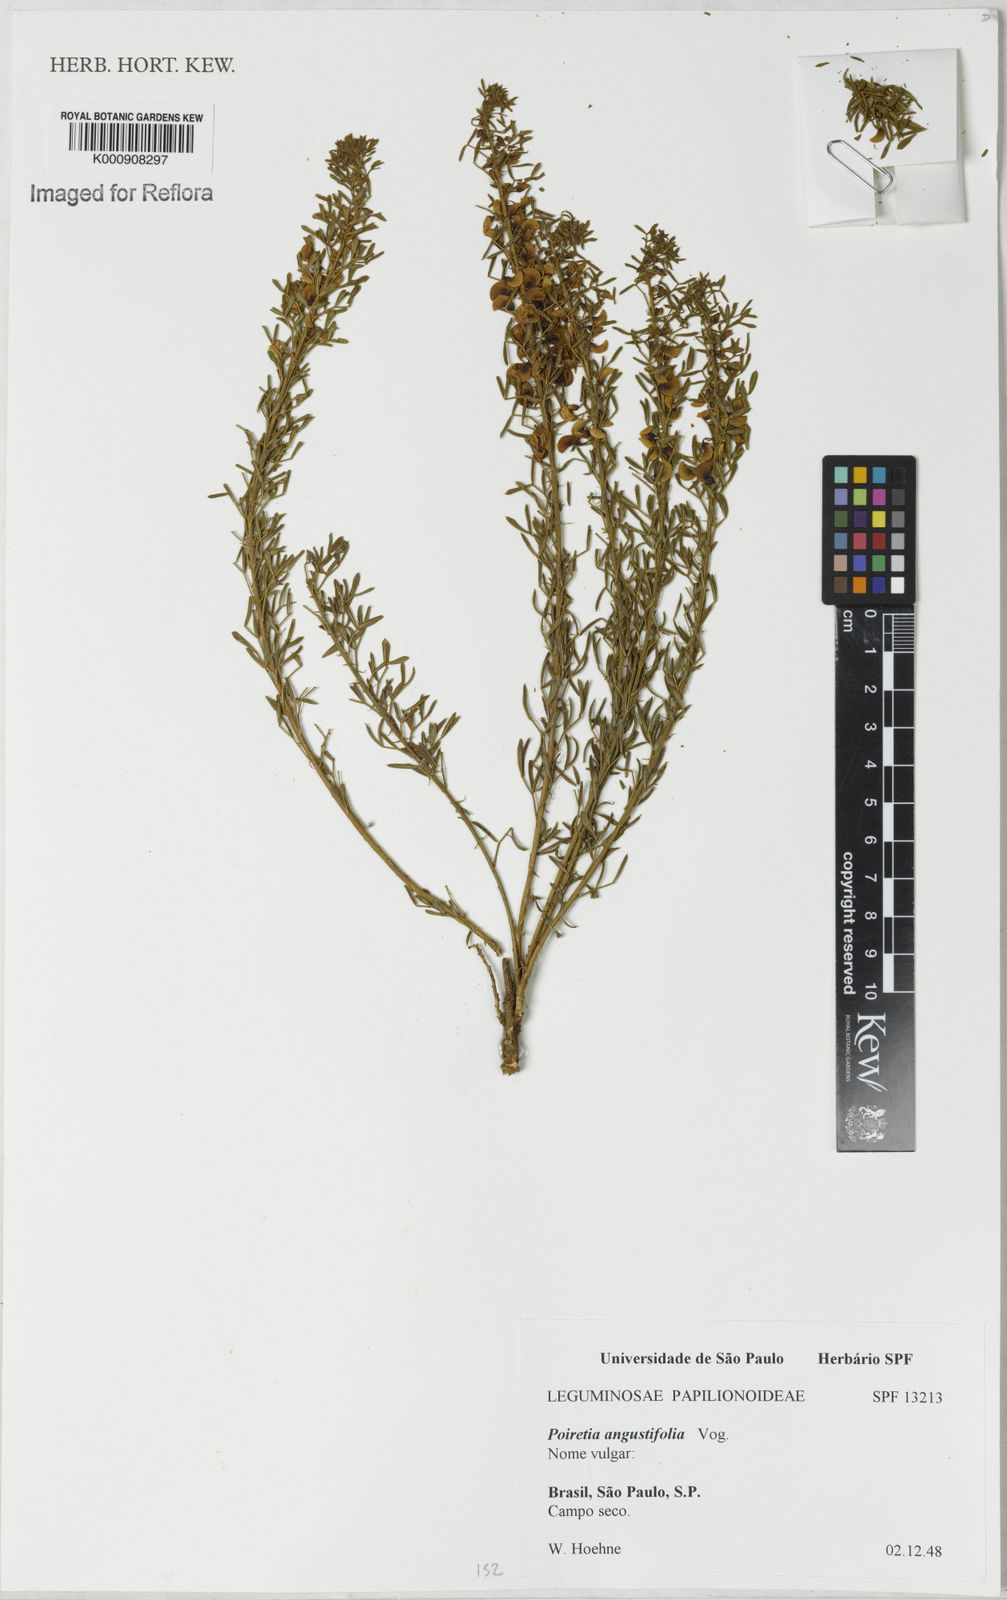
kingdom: Plantae
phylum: Tracheophyta
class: Magnoliopsida
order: Fabales
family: Fabaceae
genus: Poiretia
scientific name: Poiretia angustifolia
